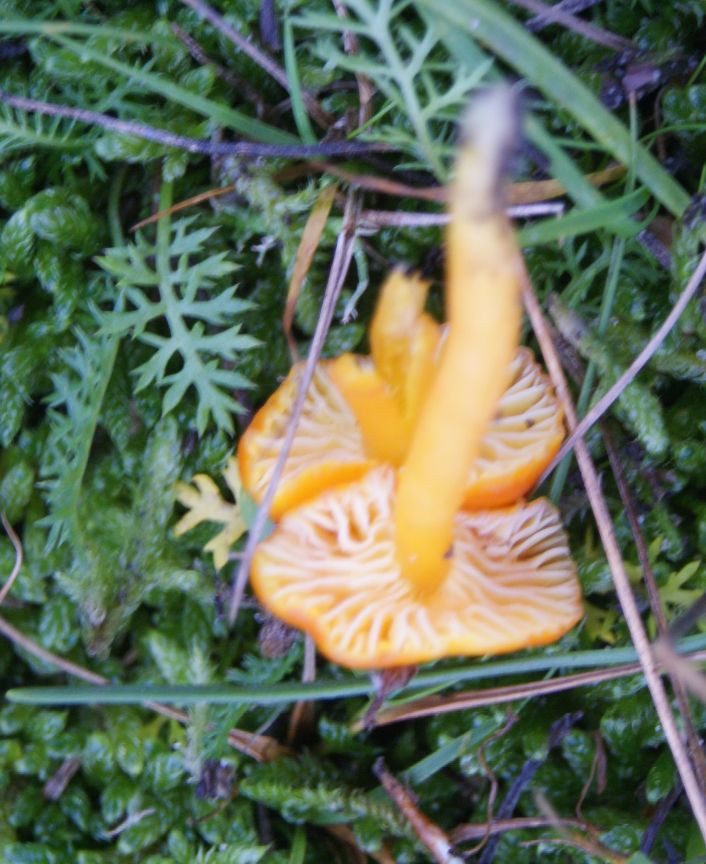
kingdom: Fungi
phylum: Basidiomycota
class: Agaricomycetes
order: Agaricales
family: Hygrophoraceae
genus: Hygrocybe
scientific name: Hygrocybe insipida
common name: liden vokshat
